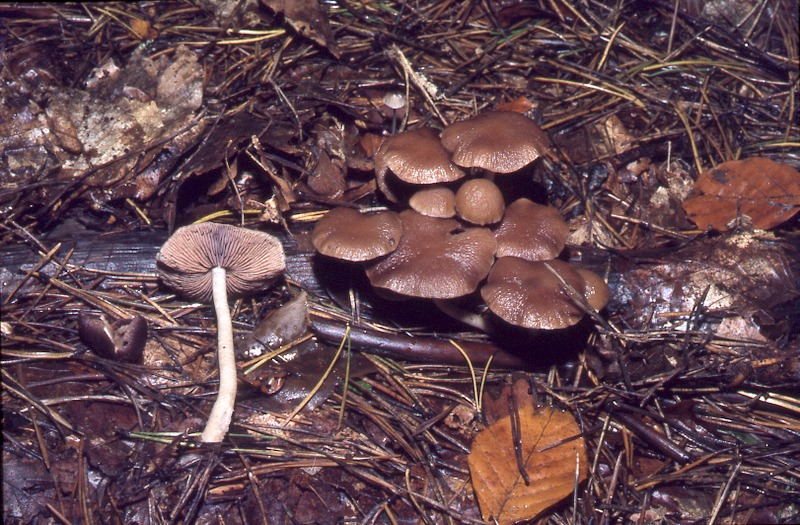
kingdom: Fungi
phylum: Basidiomycota
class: Agaricomycetes
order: Agaricales
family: Psathyrellaceae
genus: Homophron
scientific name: Homophron spadiceum
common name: Chestnut brittlestem
